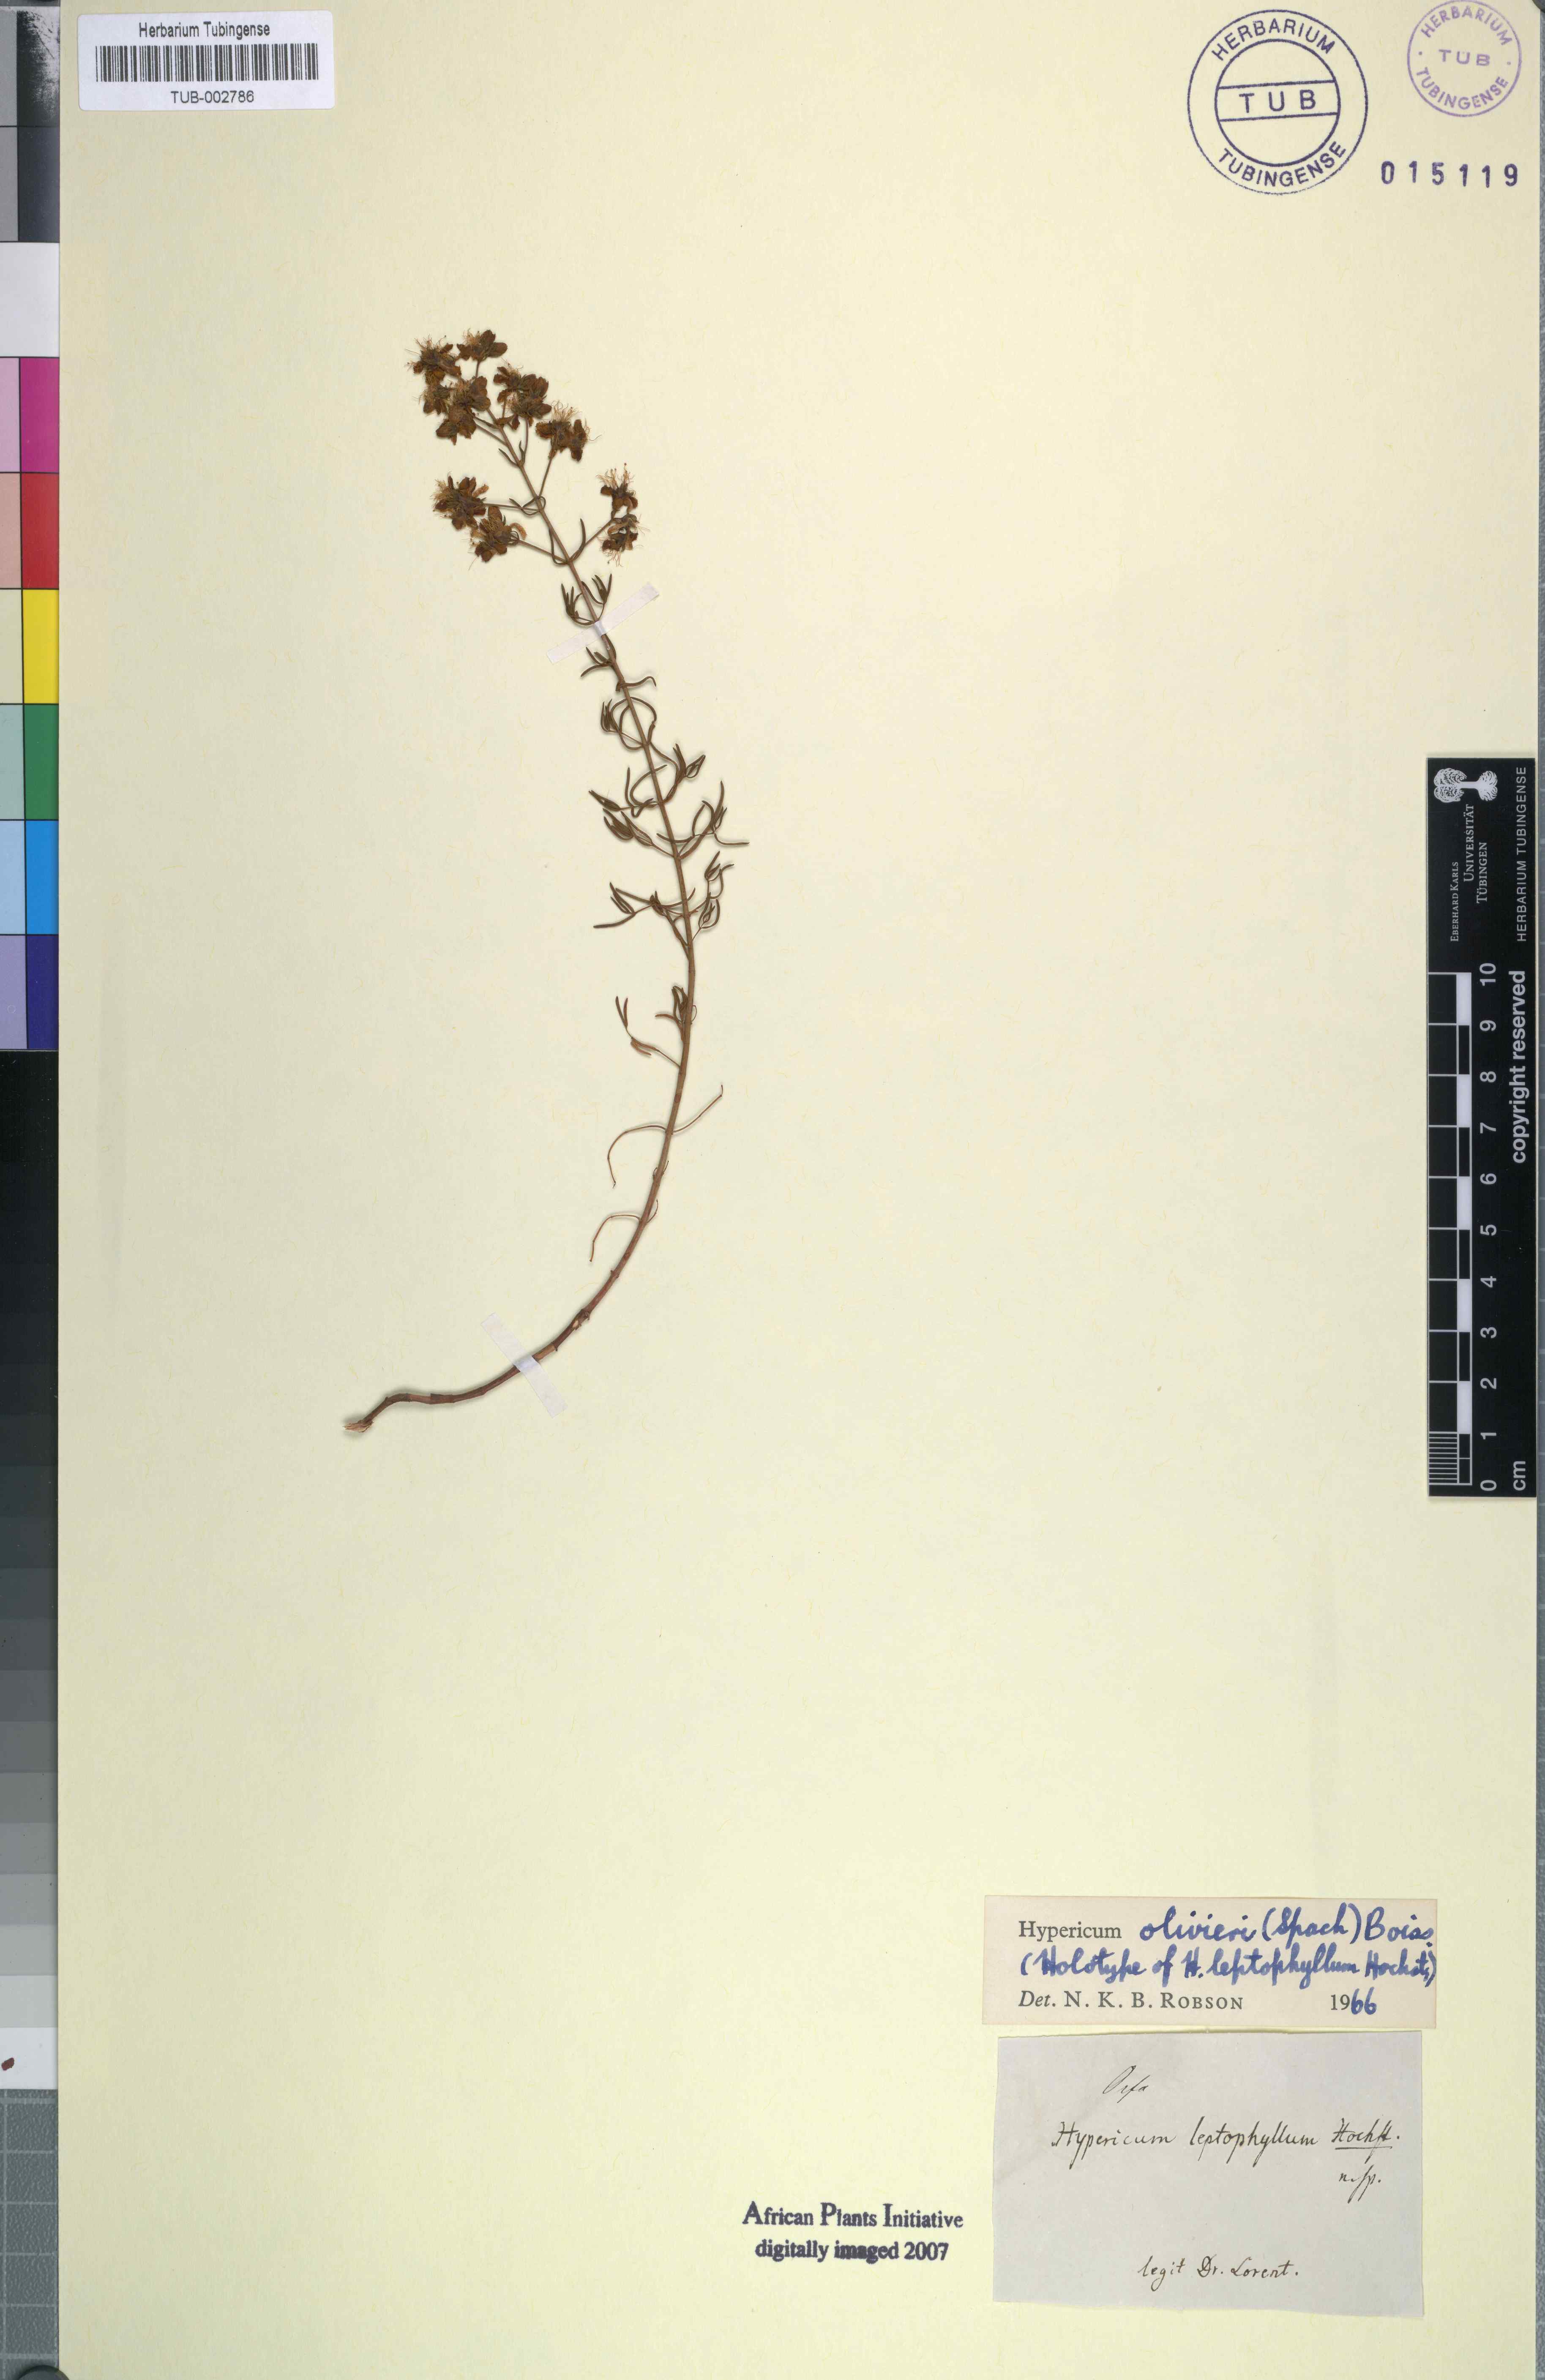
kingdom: Plantae
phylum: Tracheophyta
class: Magnoliopsida
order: Malpighiales
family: Hypericaceae
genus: Hypericum
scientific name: Hypericum olivieri
